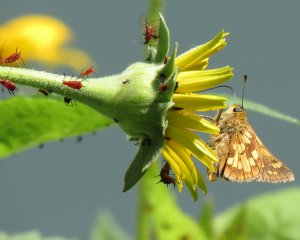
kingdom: Animalia
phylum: Arthropoda
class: Insecta
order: Lepidoptera
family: Hesperiidae
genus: Polites
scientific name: Polites coras
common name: Peck's Skipper
